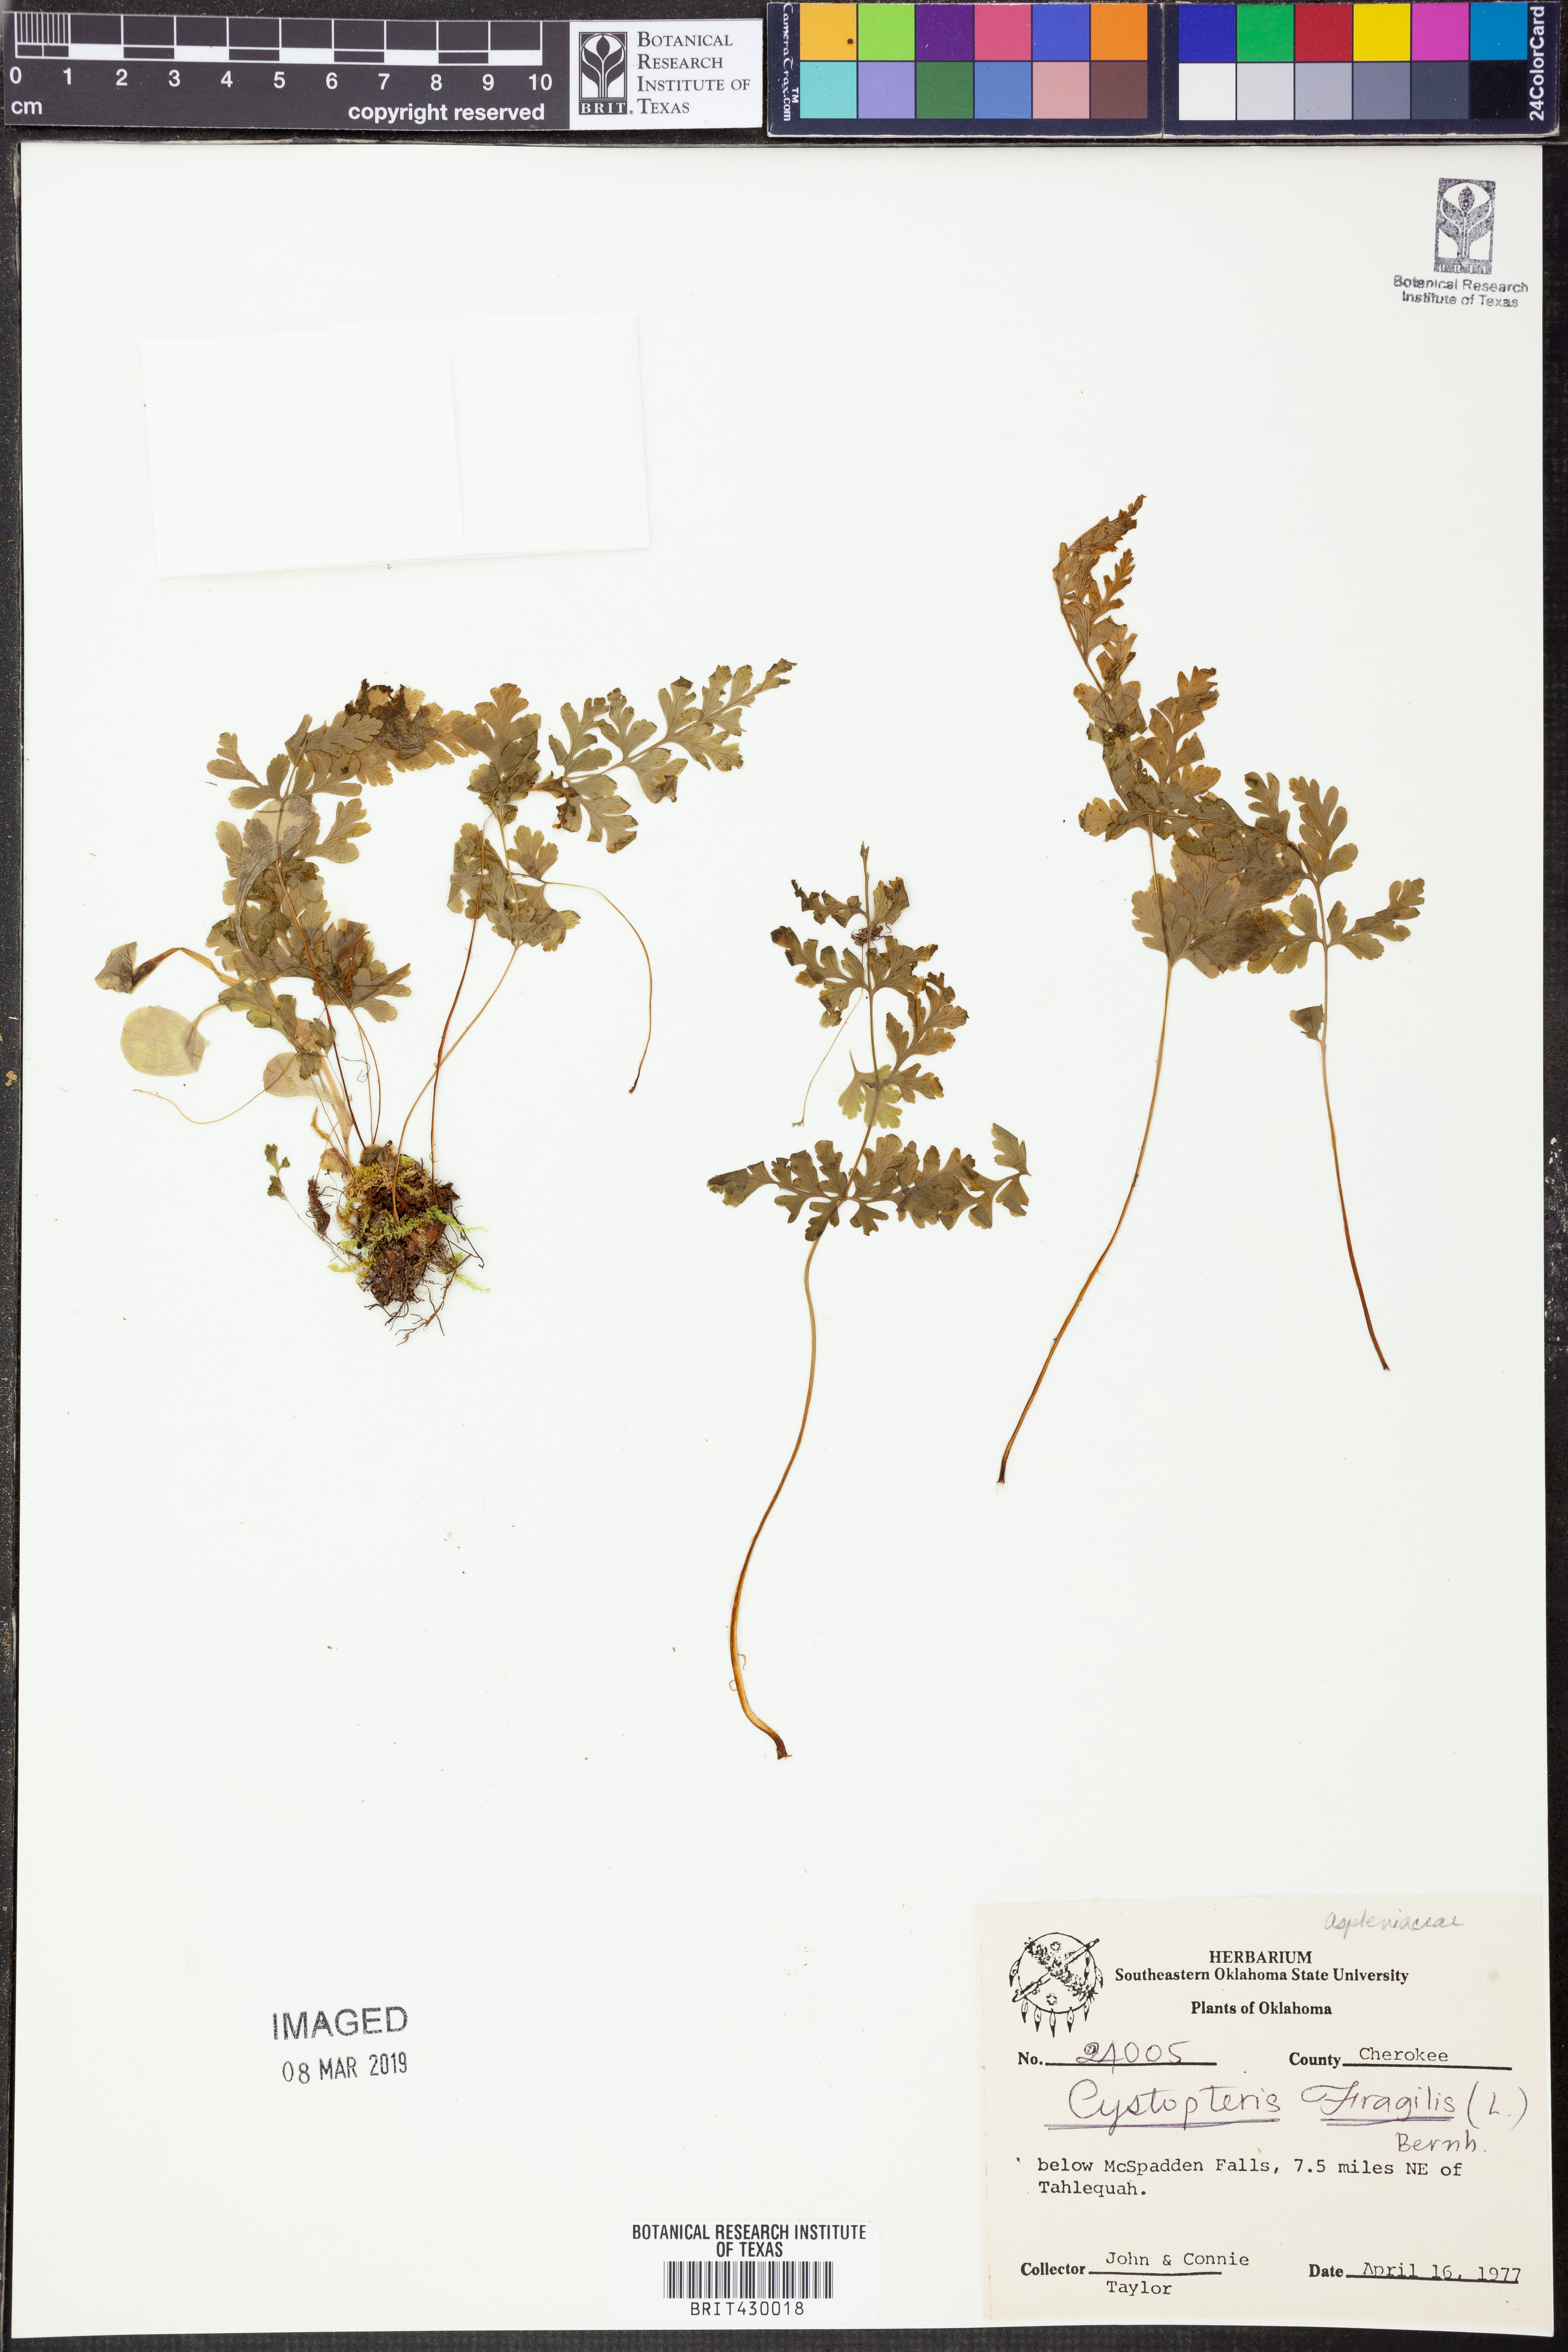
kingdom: Plantae
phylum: Tracheophyta
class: Polypodiopsida
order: Polypodiales
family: Cystopteridaceae
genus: Cystopteris
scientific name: Cystopteris fragilis
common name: Brittle bladder fern
